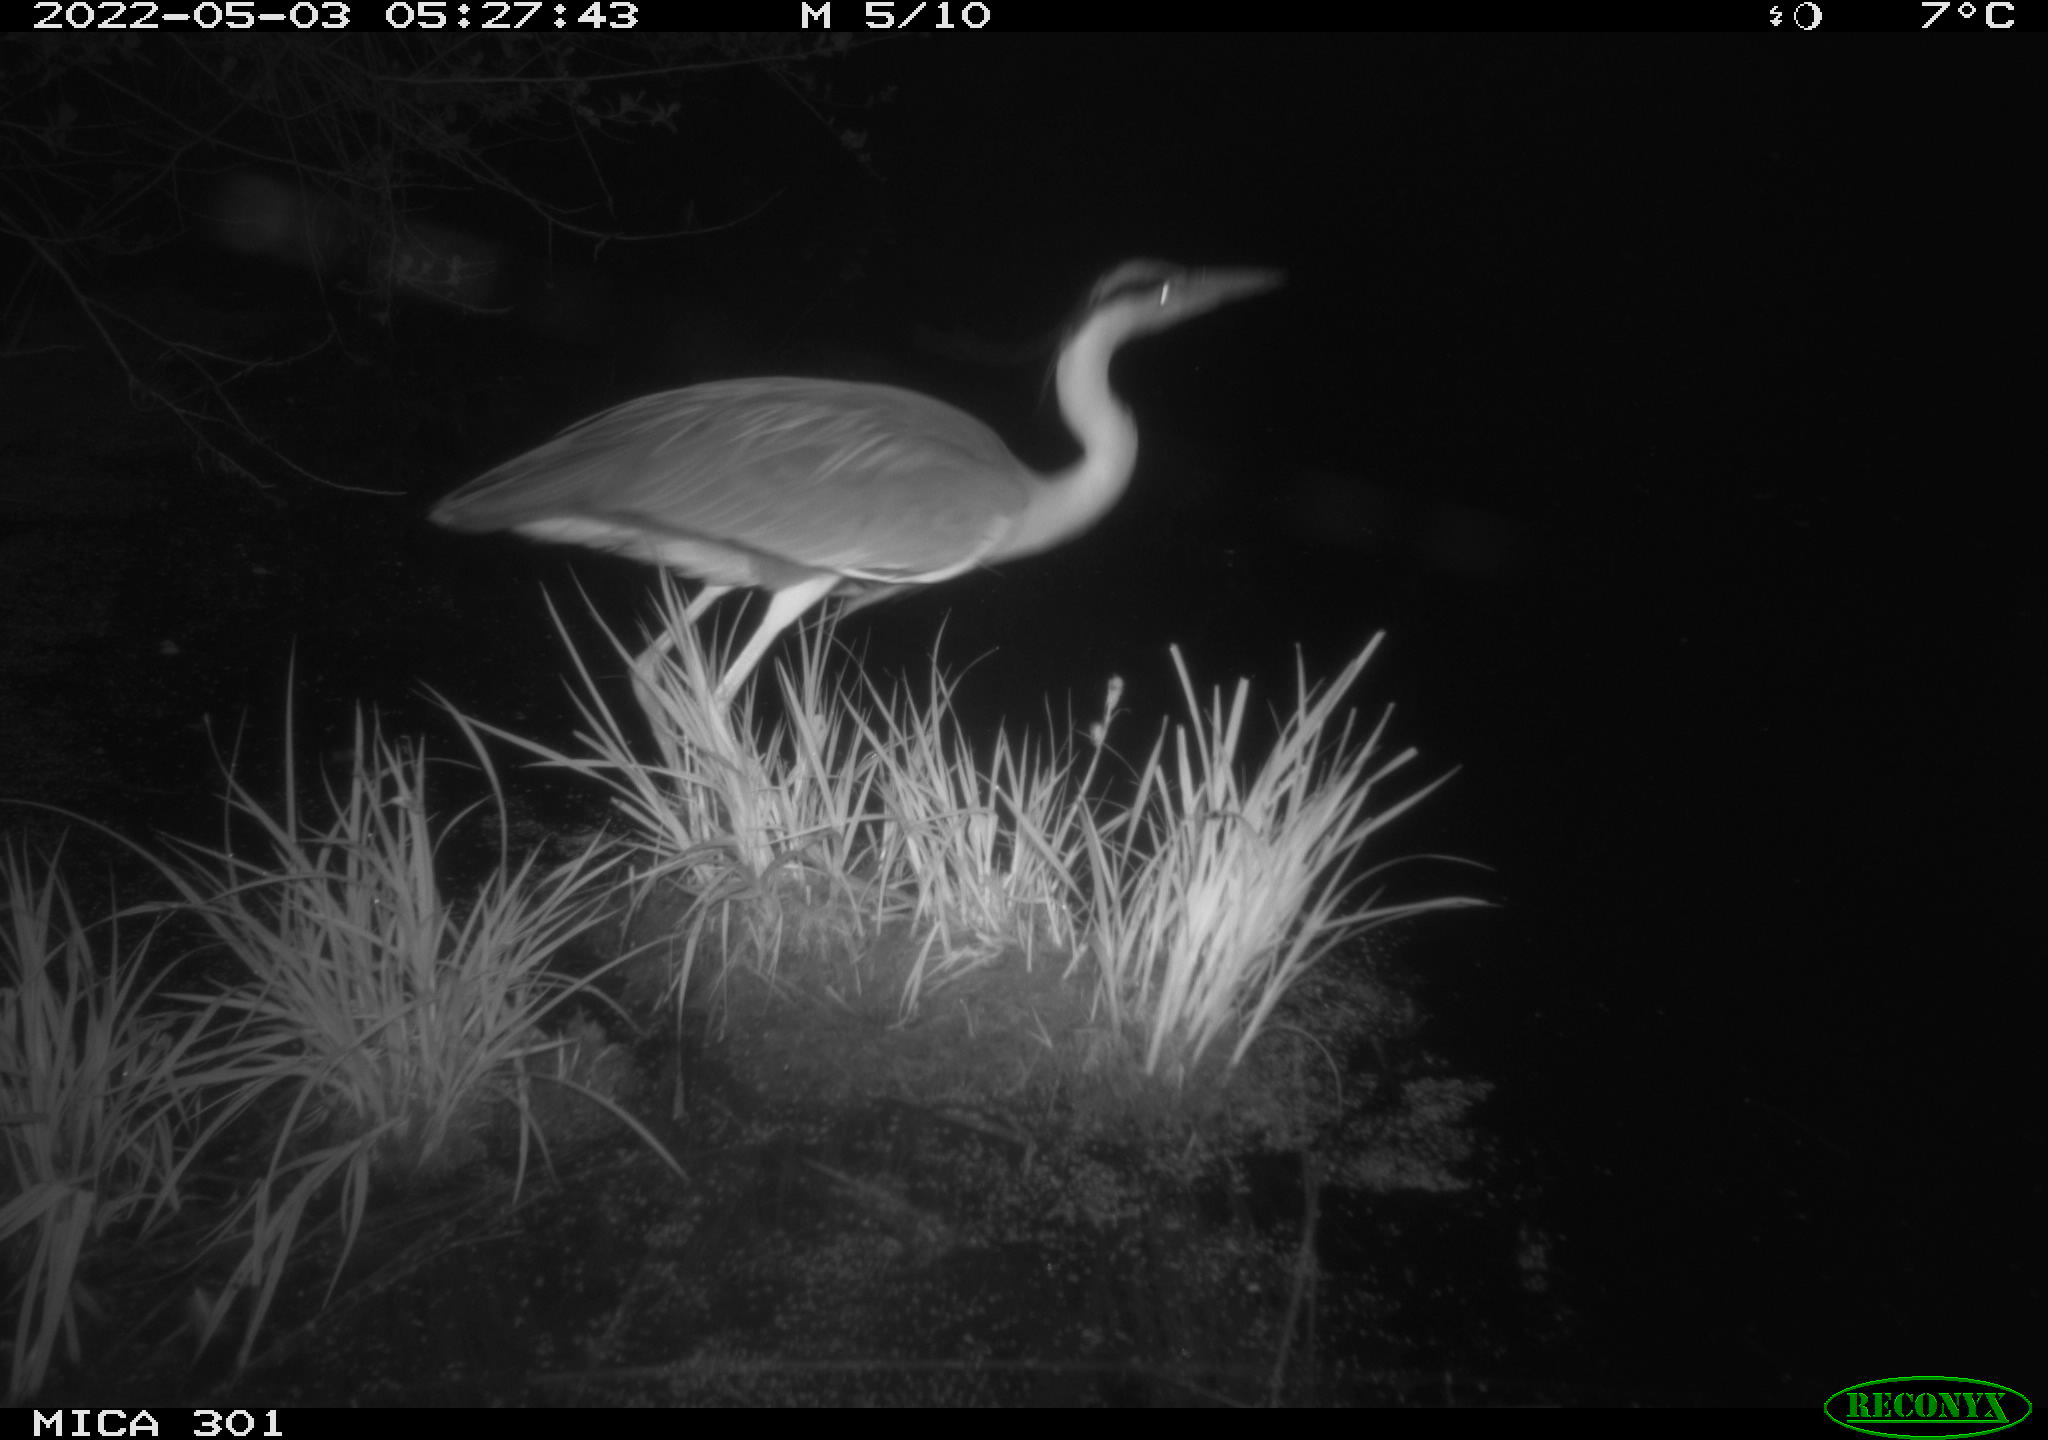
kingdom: Animalia
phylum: Chordata
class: Aves
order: Pelecaniformes
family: Ardeidae
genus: Ardea
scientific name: Ardea
